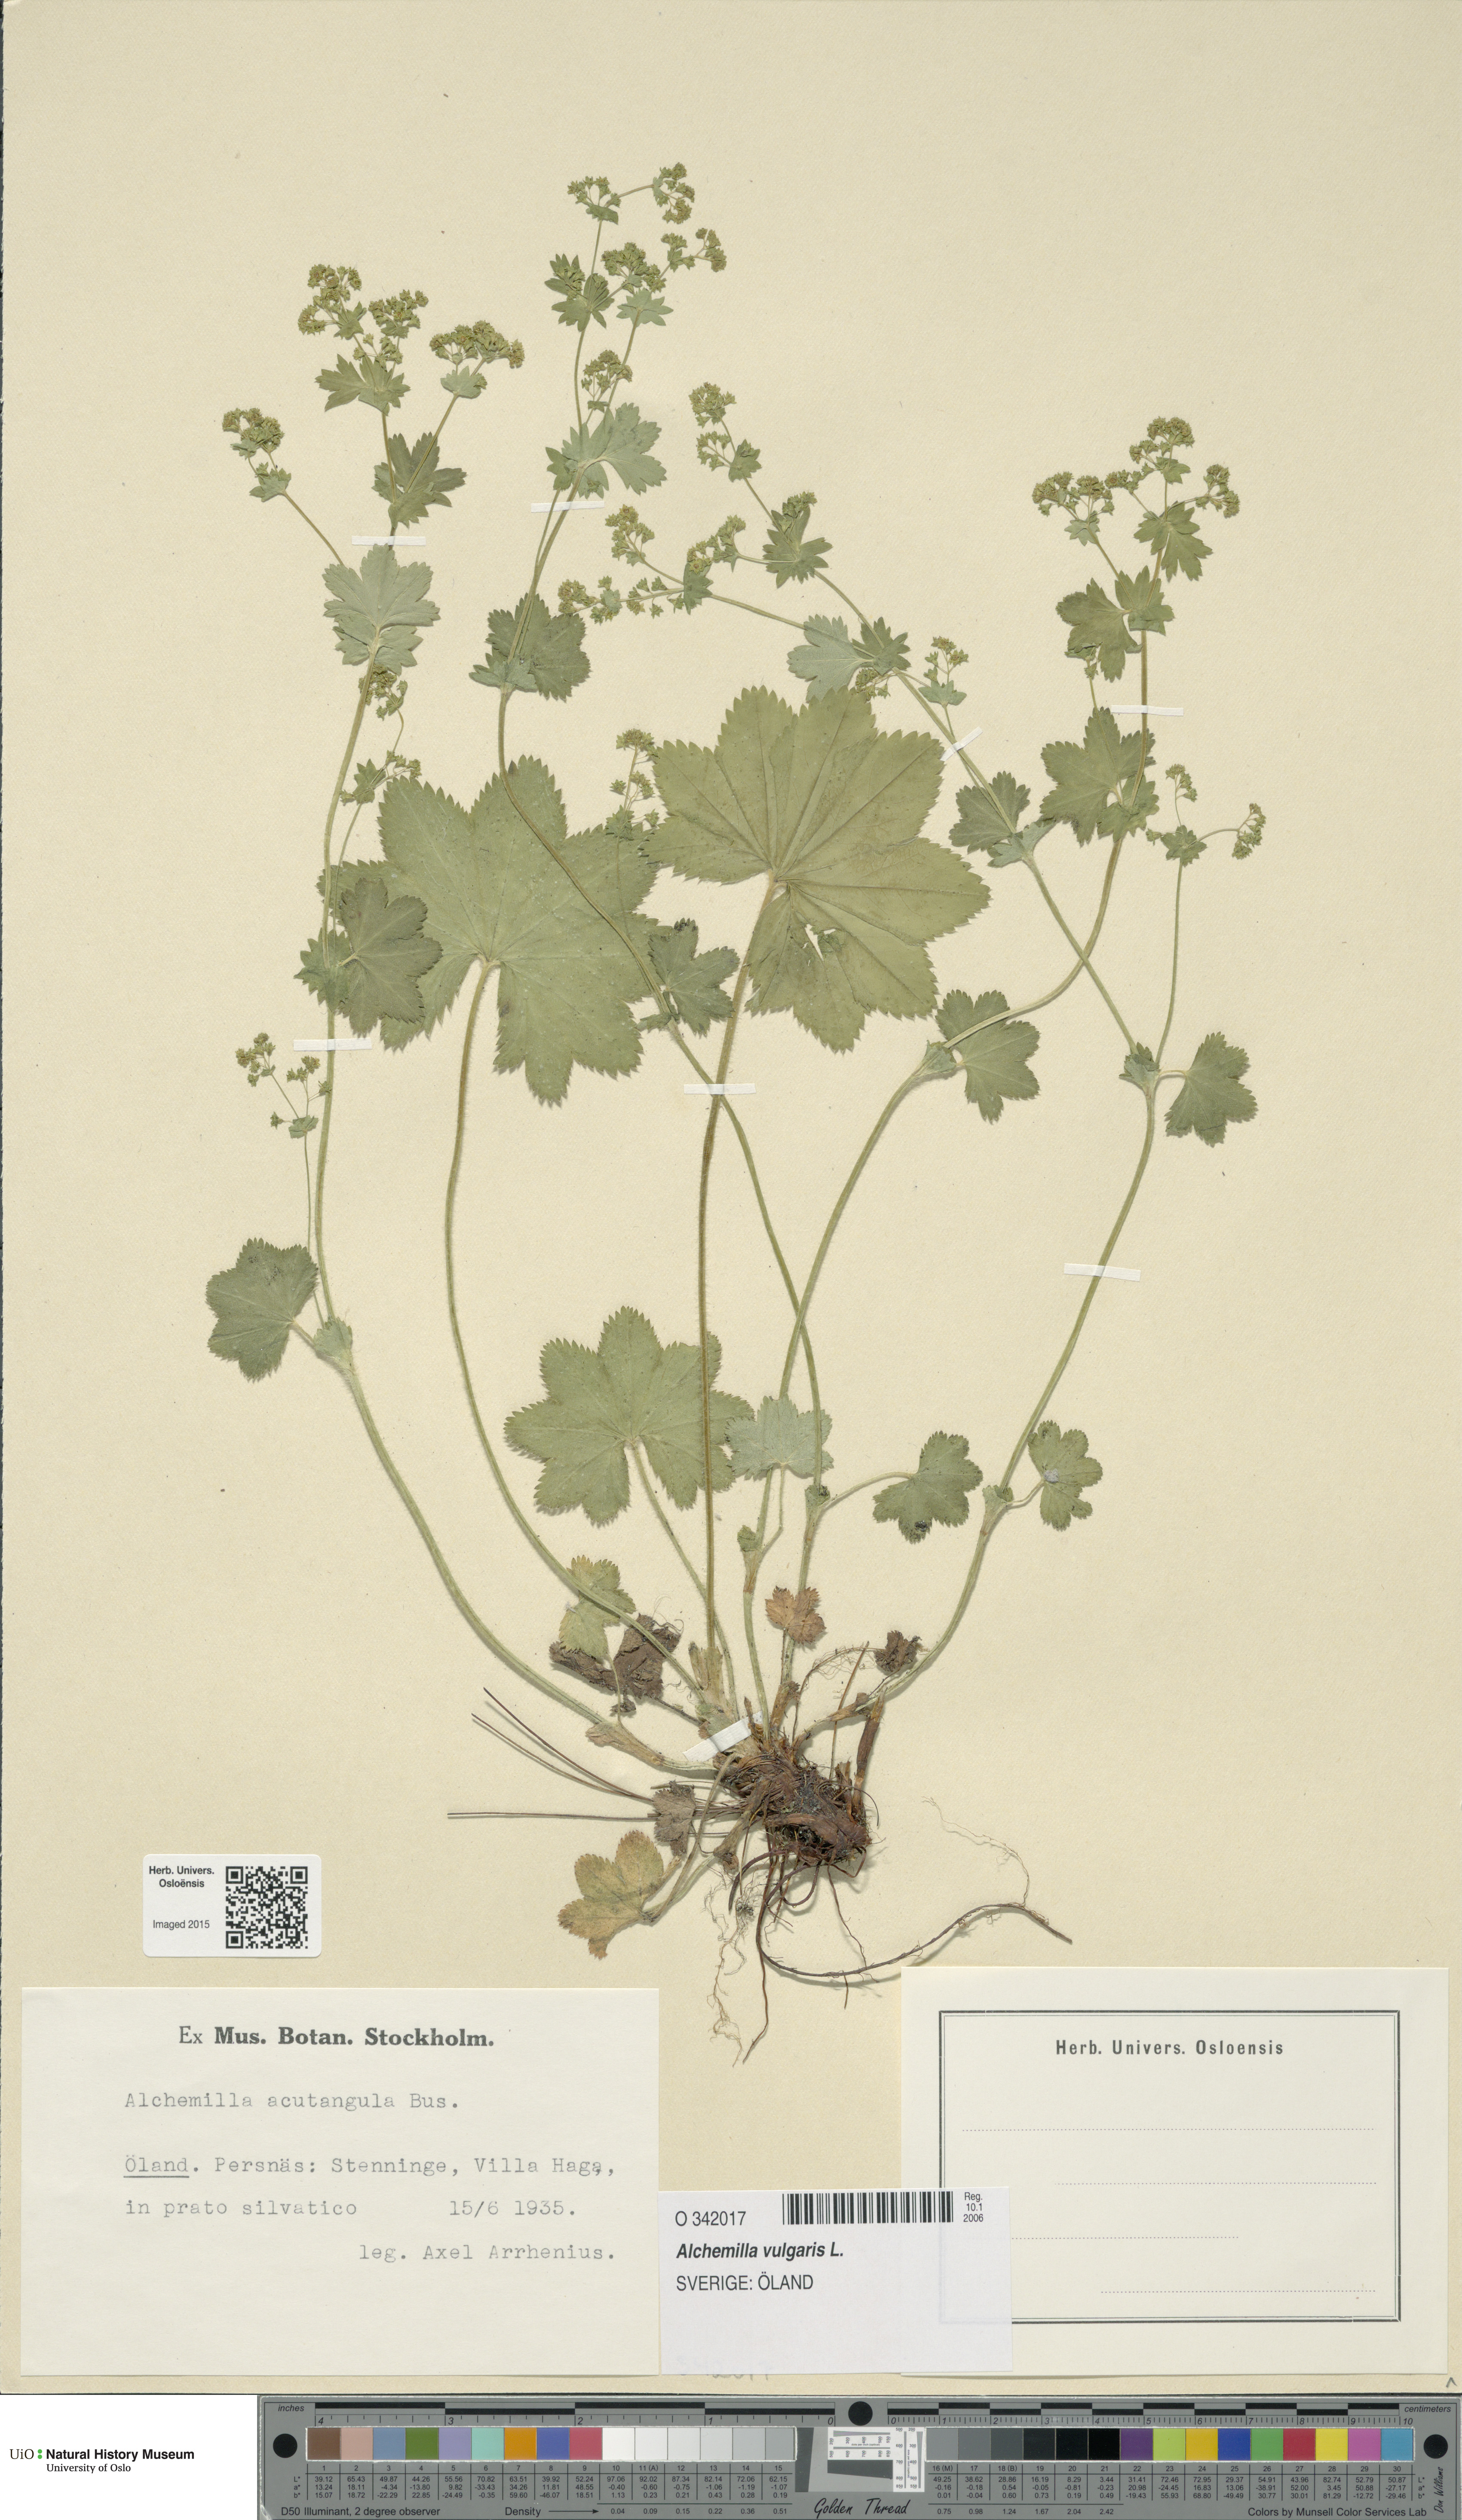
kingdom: Plantae
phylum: Tracheophyta
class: Magnoliopsida
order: Rosales
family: Rosaceae
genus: Alchemilla
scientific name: Alchemilla vulgaris
